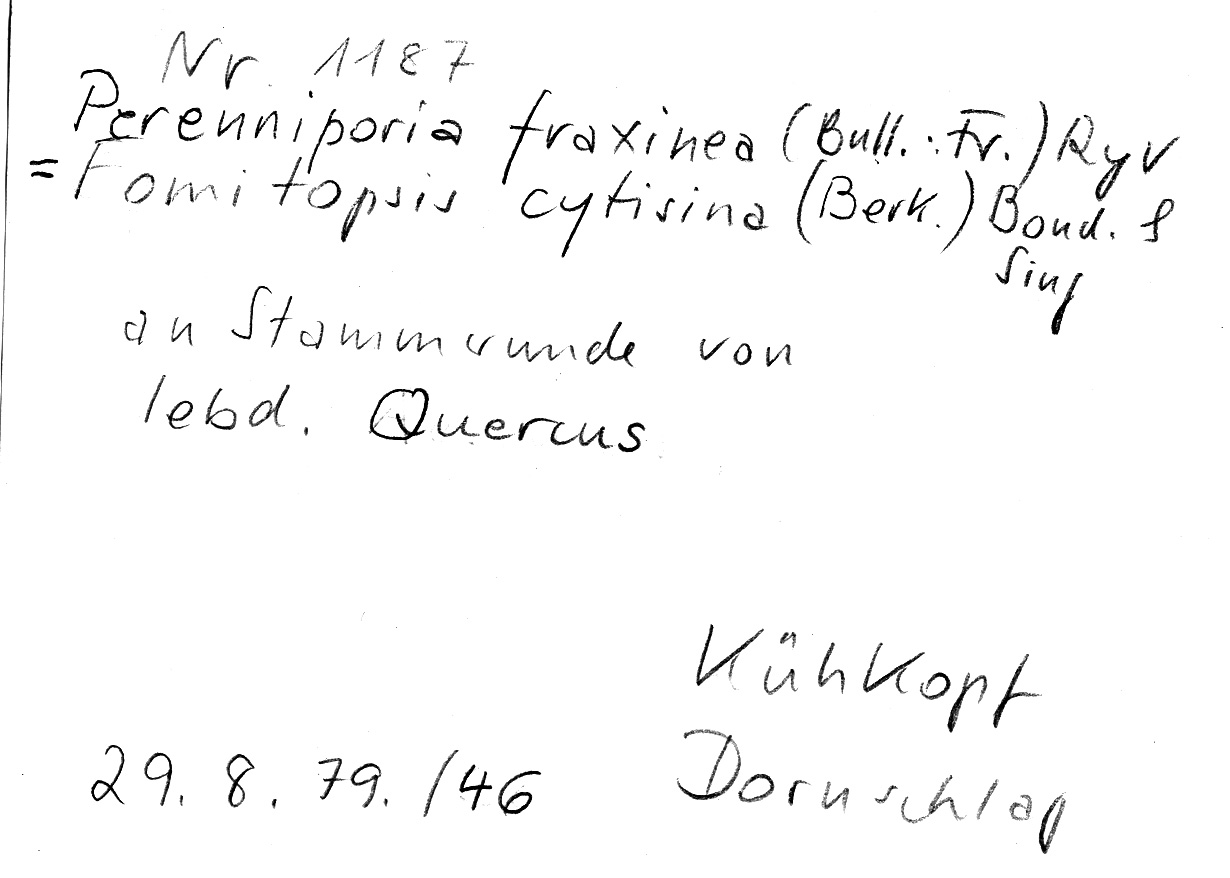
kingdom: Plantae
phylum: Tracheophyta
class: Magnoliopsida
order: Fagales
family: Fagaceae
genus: Quercus
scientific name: Quercus
